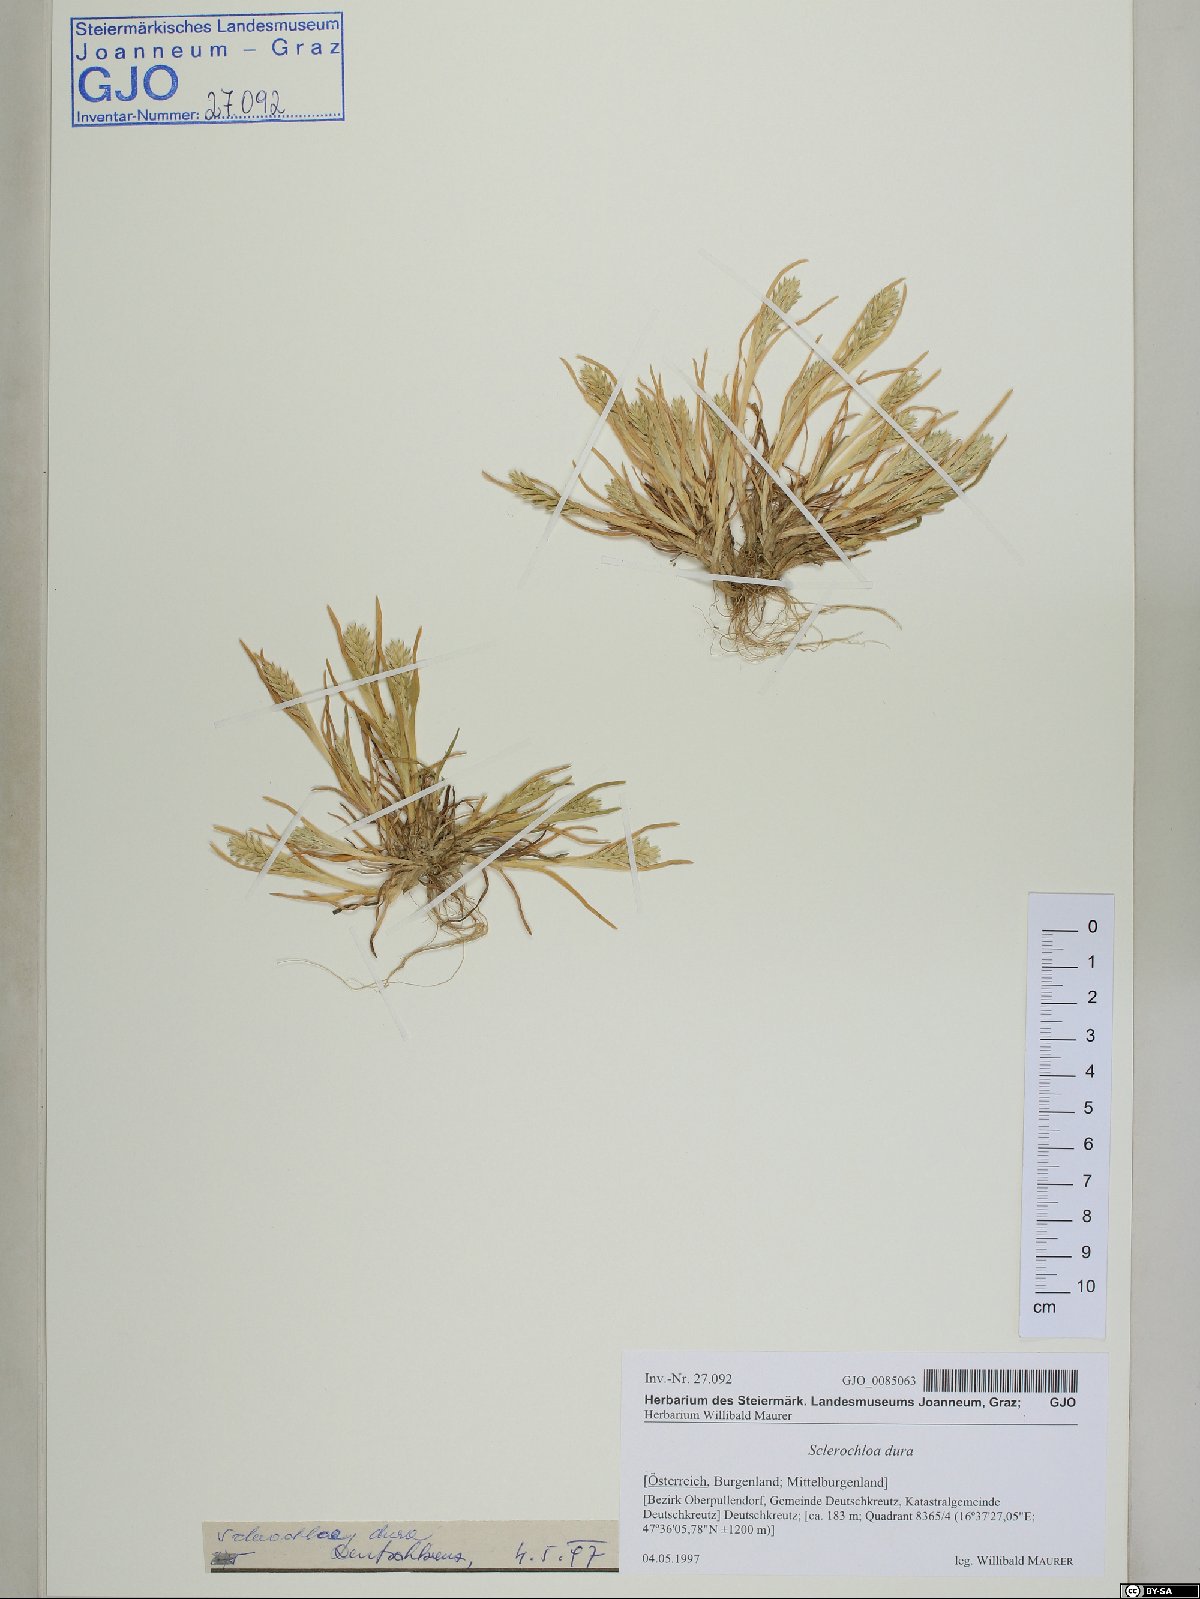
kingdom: Plantae
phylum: Tracheophyta
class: Liliopsida
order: Poales
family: Poaceae
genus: Sclerochloa
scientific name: Sclerochloa dura
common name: Common hardgrass
